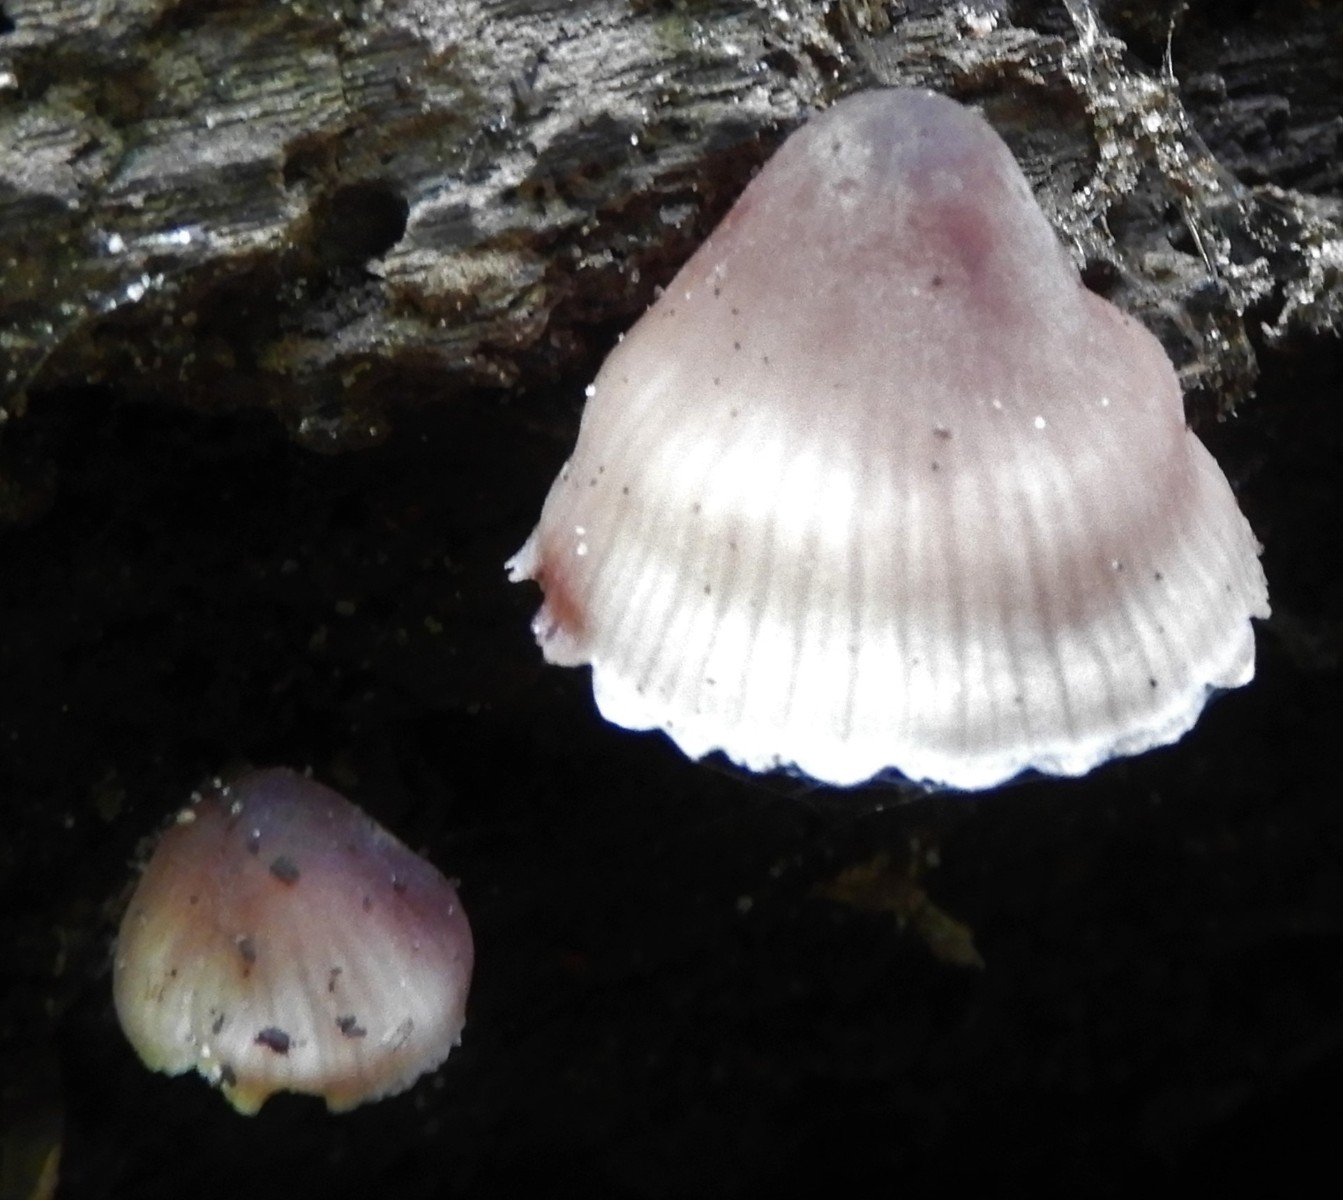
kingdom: Fungi
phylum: Basidiomycota
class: Agaricomycetes
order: Agaricales
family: Mycenaceae
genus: Mycena
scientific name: Mycena haematopus
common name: blødende huesvamp
